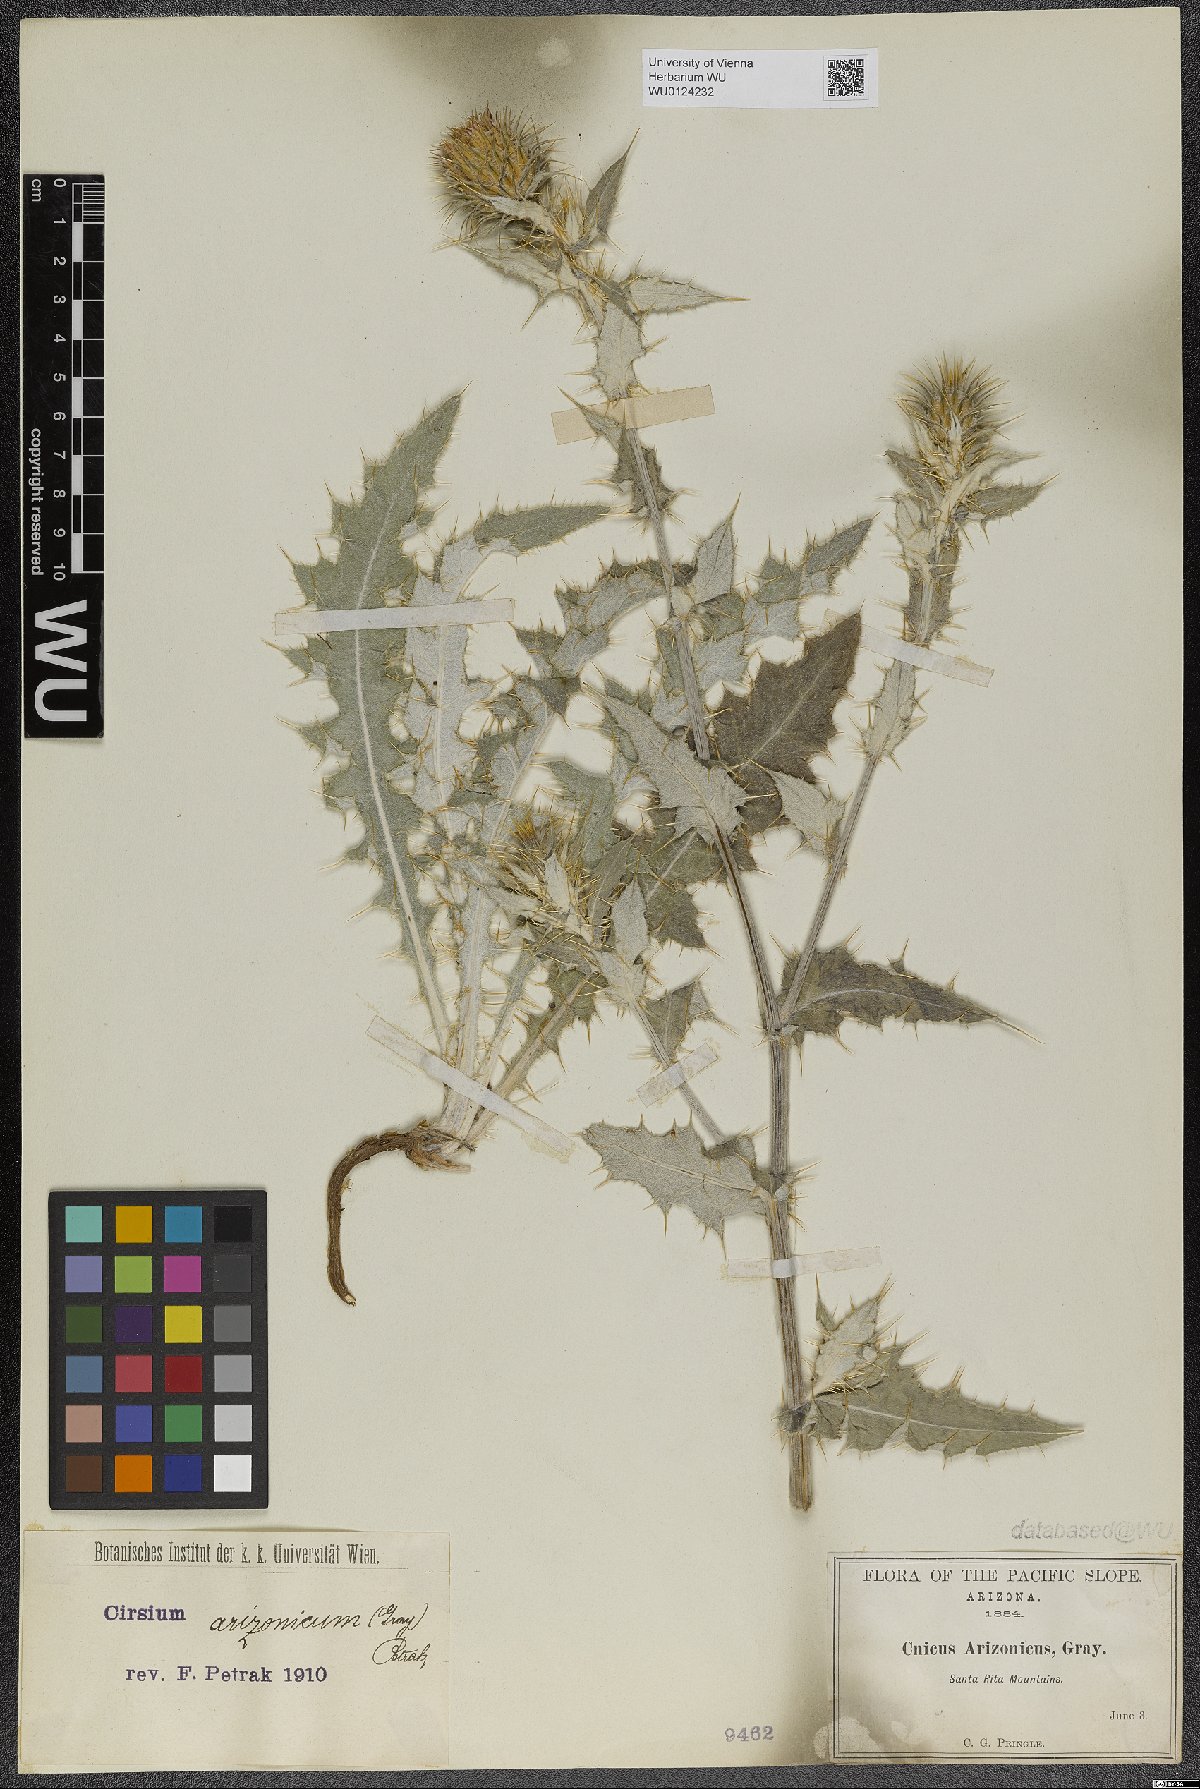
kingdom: Plantae
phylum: Tracheophyta
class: Magnoliopsida
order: Asterales
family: Asteraceae
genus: Cirsium
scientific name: Cirsium arizonicum
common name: Arizona thistle
